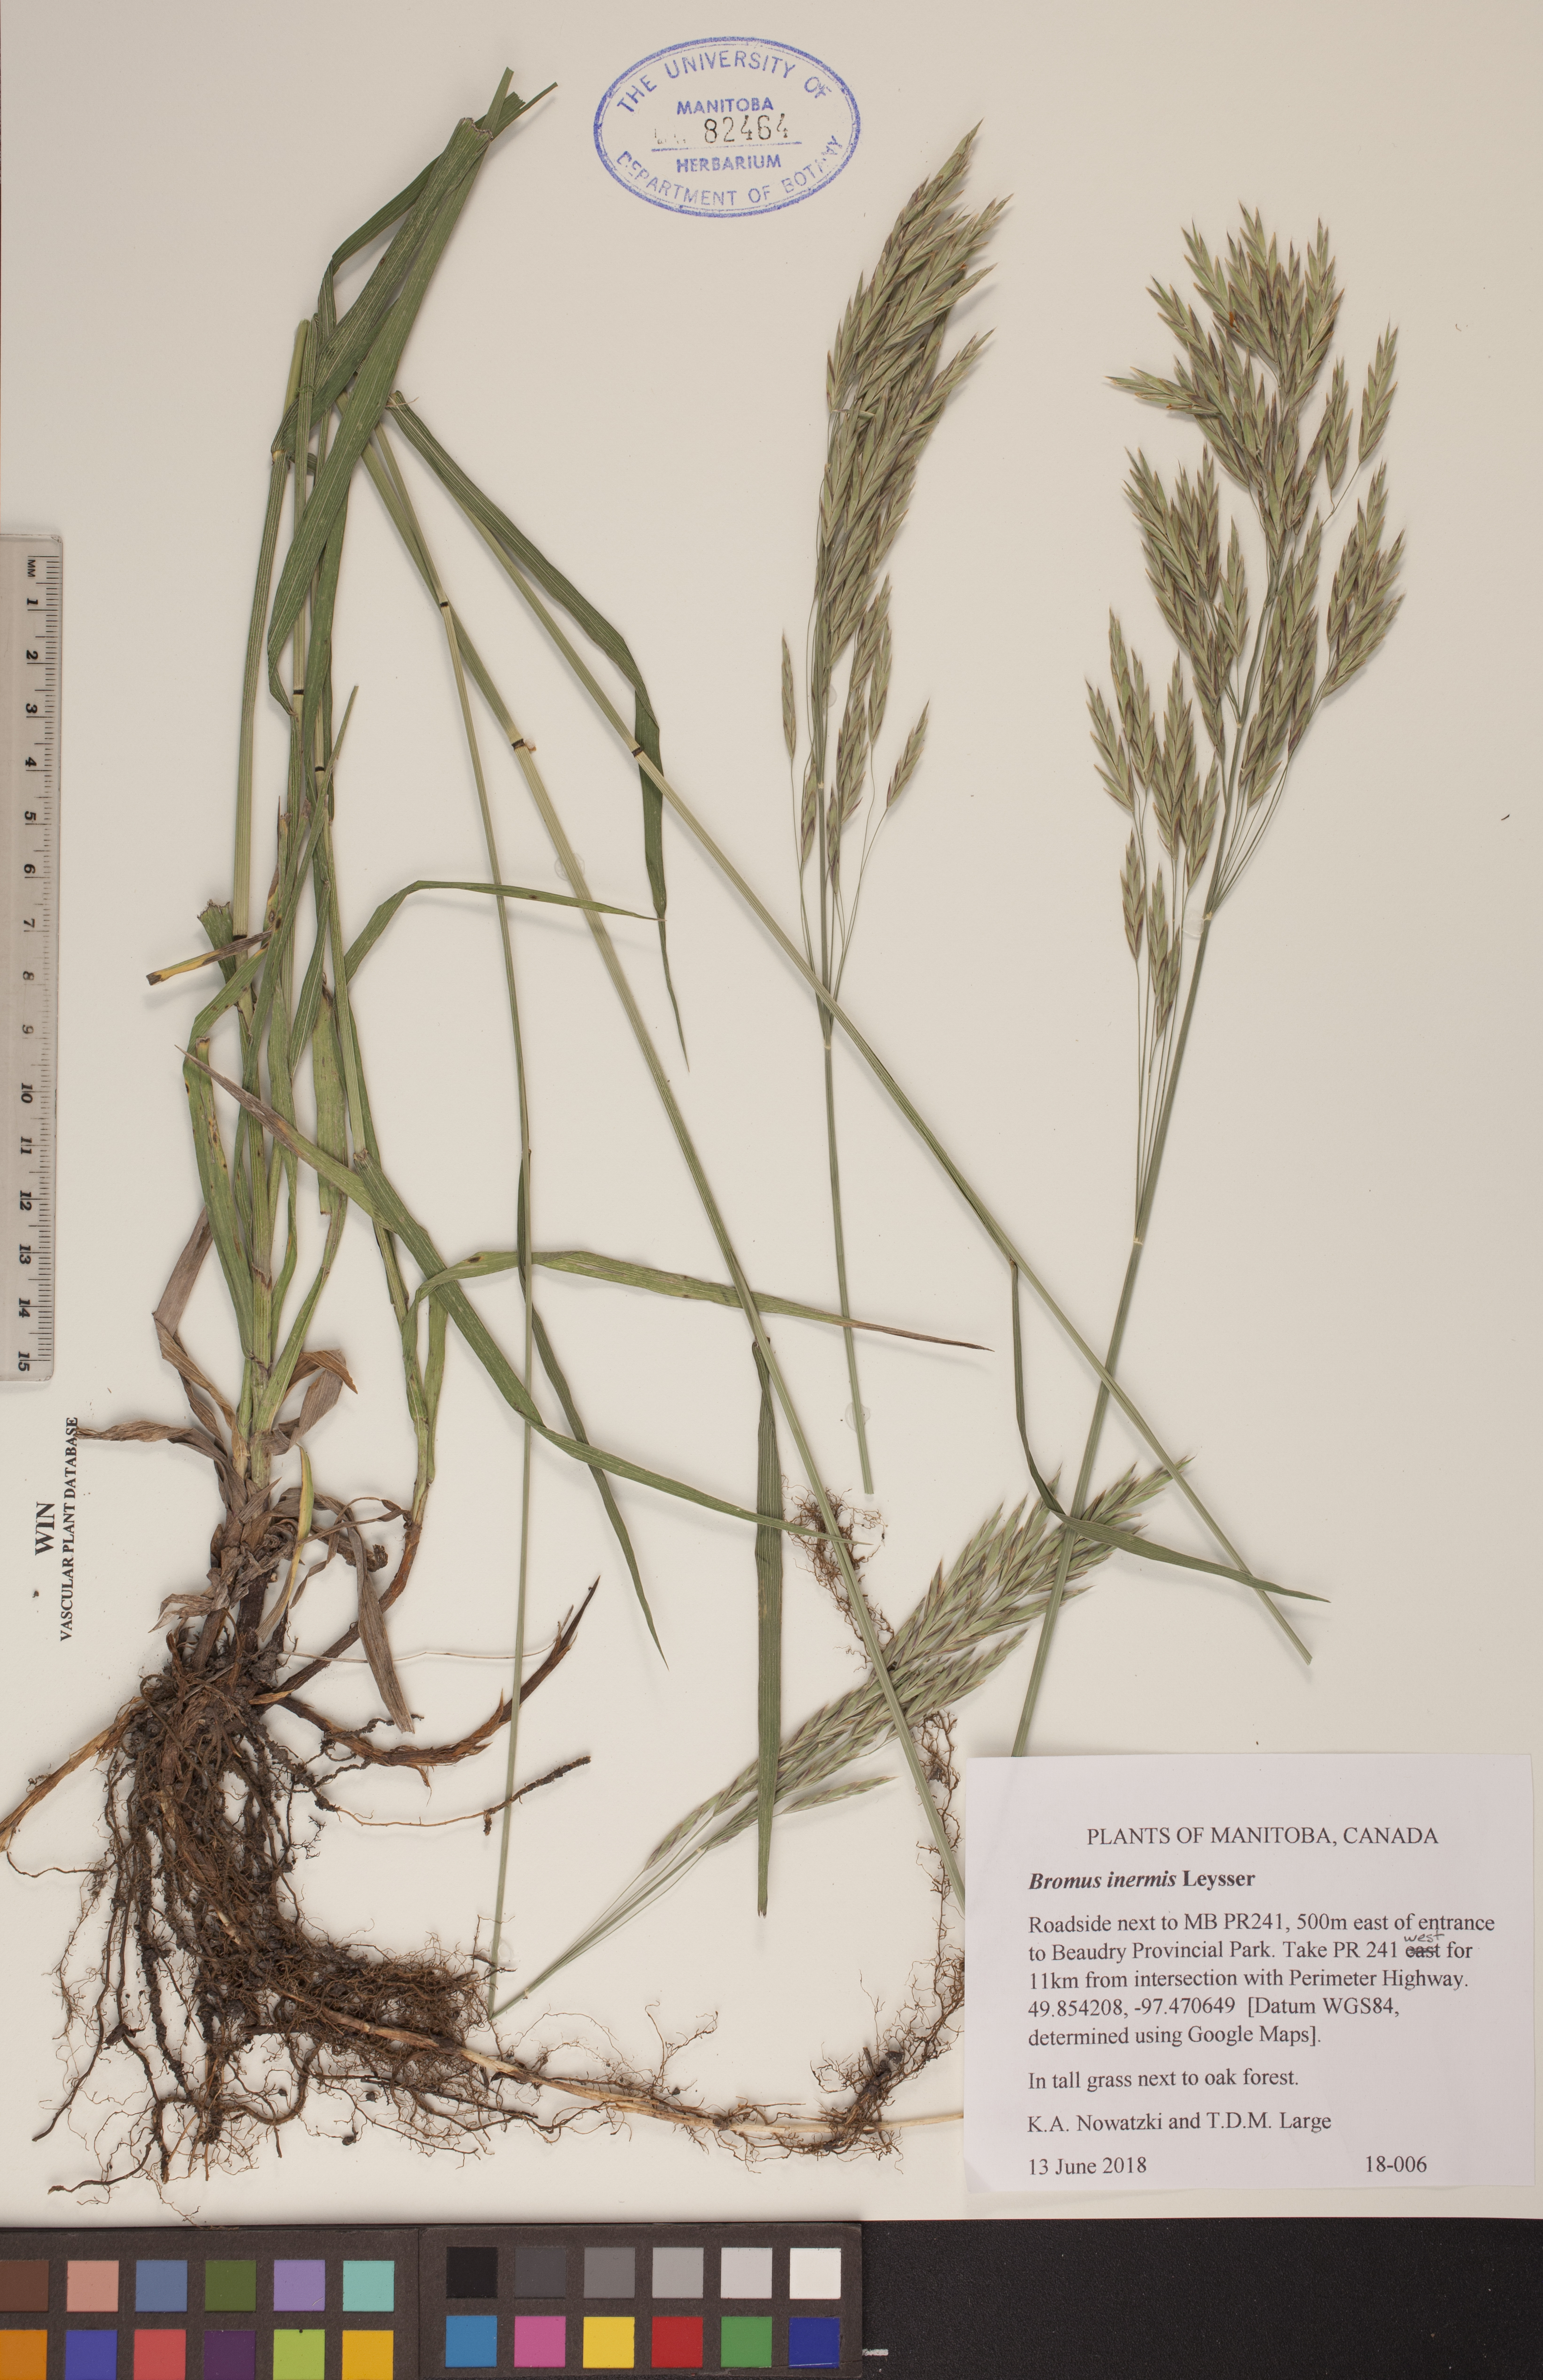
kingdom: Plantae
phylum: Tracheophyta
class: Liliopsida
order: Poales
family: Poaceae
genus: Bromus
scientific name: Bromus inermis
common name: Smooth brome
